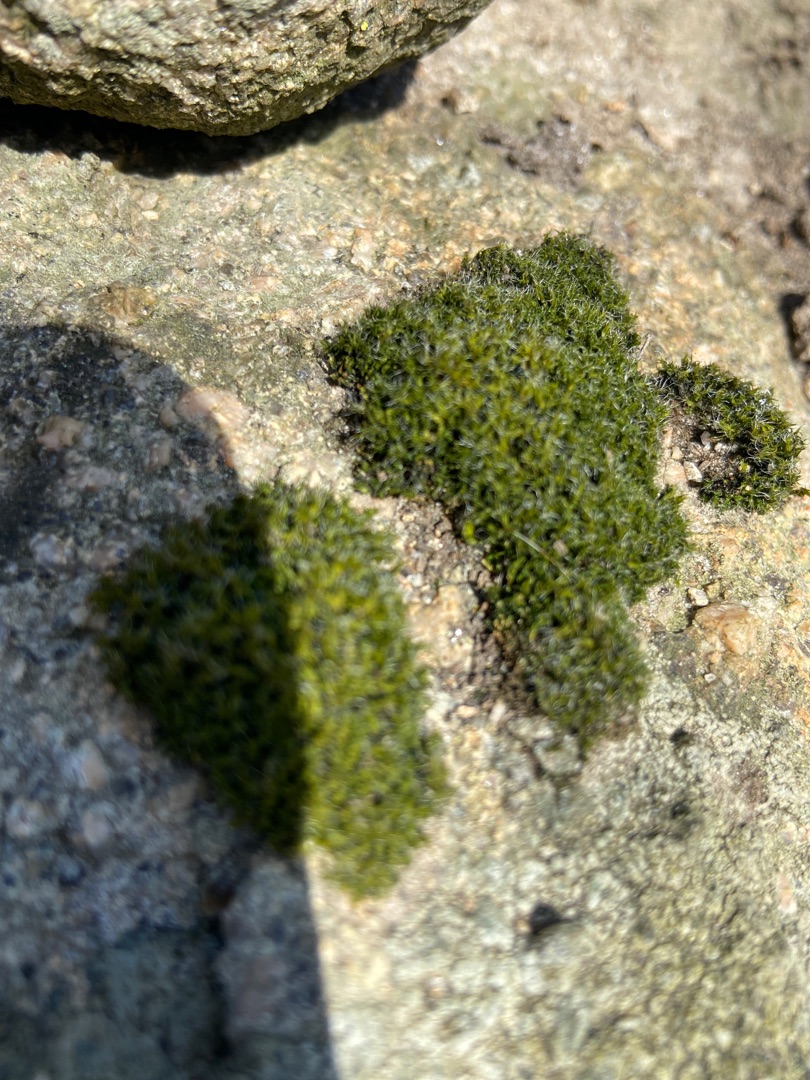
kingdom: Plantae
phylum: Bryophyta
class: Bryopsida
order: Grimmiales
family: Grimmiaceae
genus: Grimmia
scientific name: Grimmia trichophylla
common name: Glathåret gråmos
